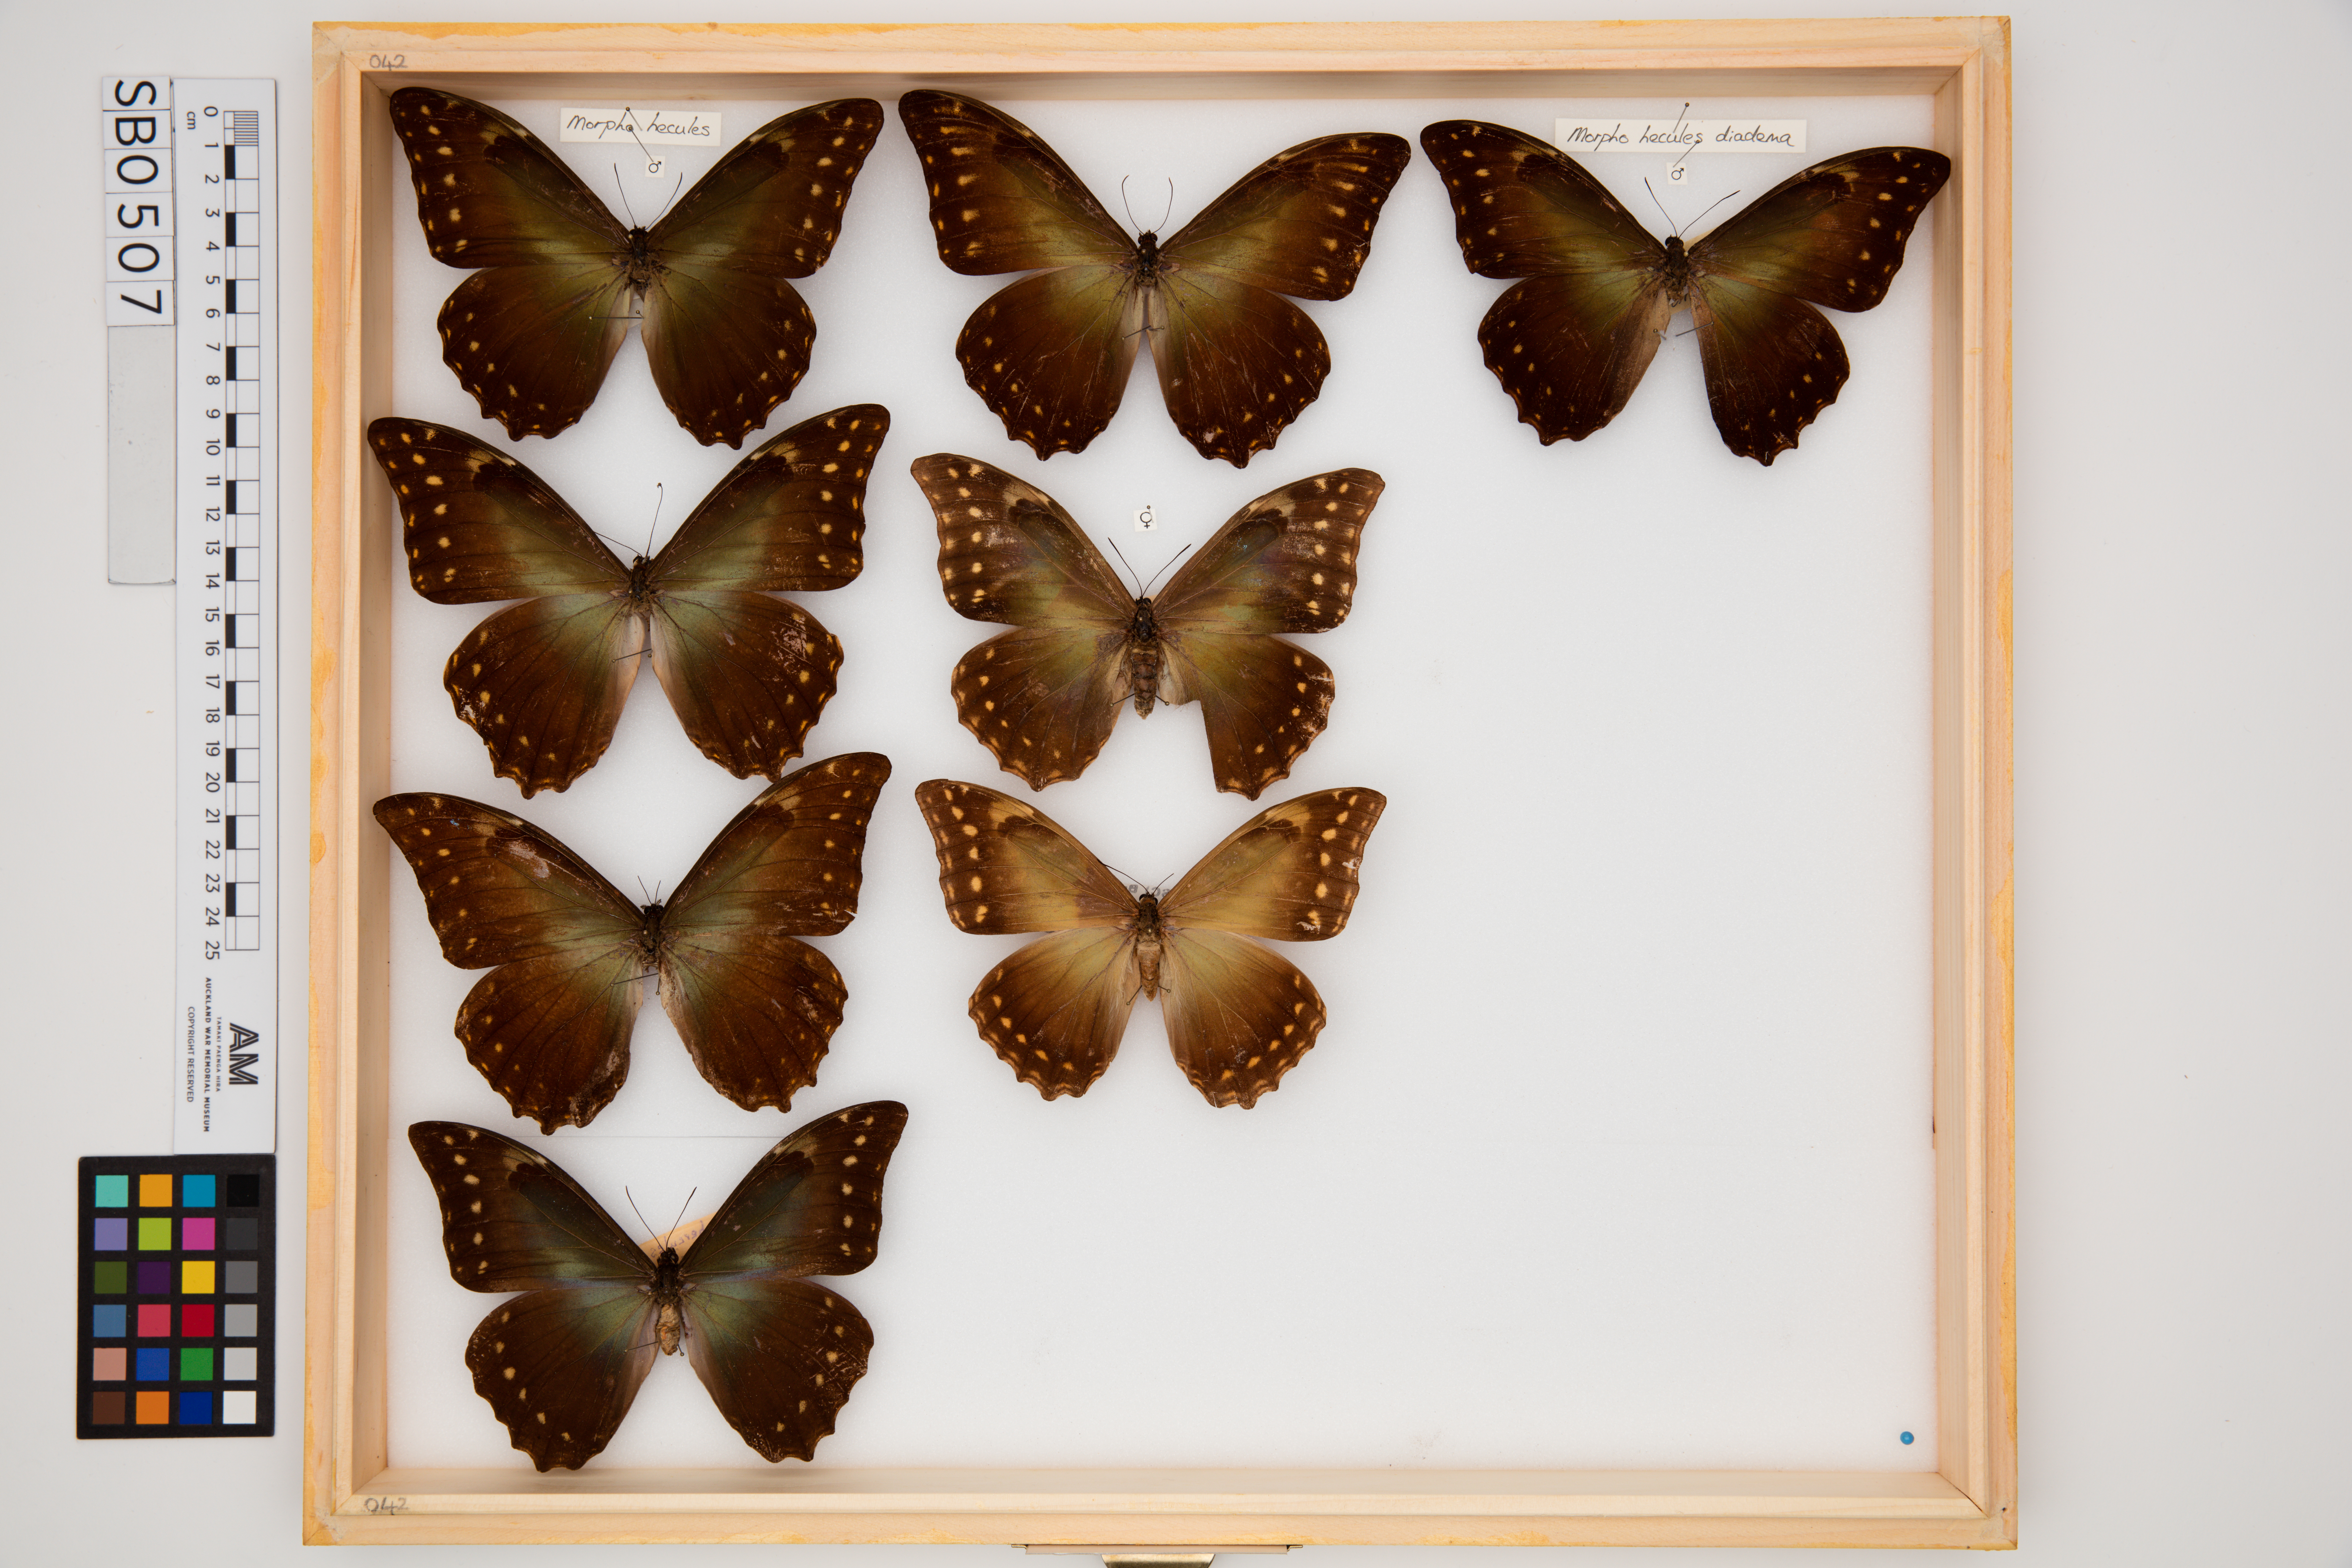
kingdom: Animalia
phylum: Arthropoda
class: Insecta
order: Lepidoptera
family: Nymphalidae
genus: Morpho
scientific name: Morpho hercules
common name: Hercules morpho
